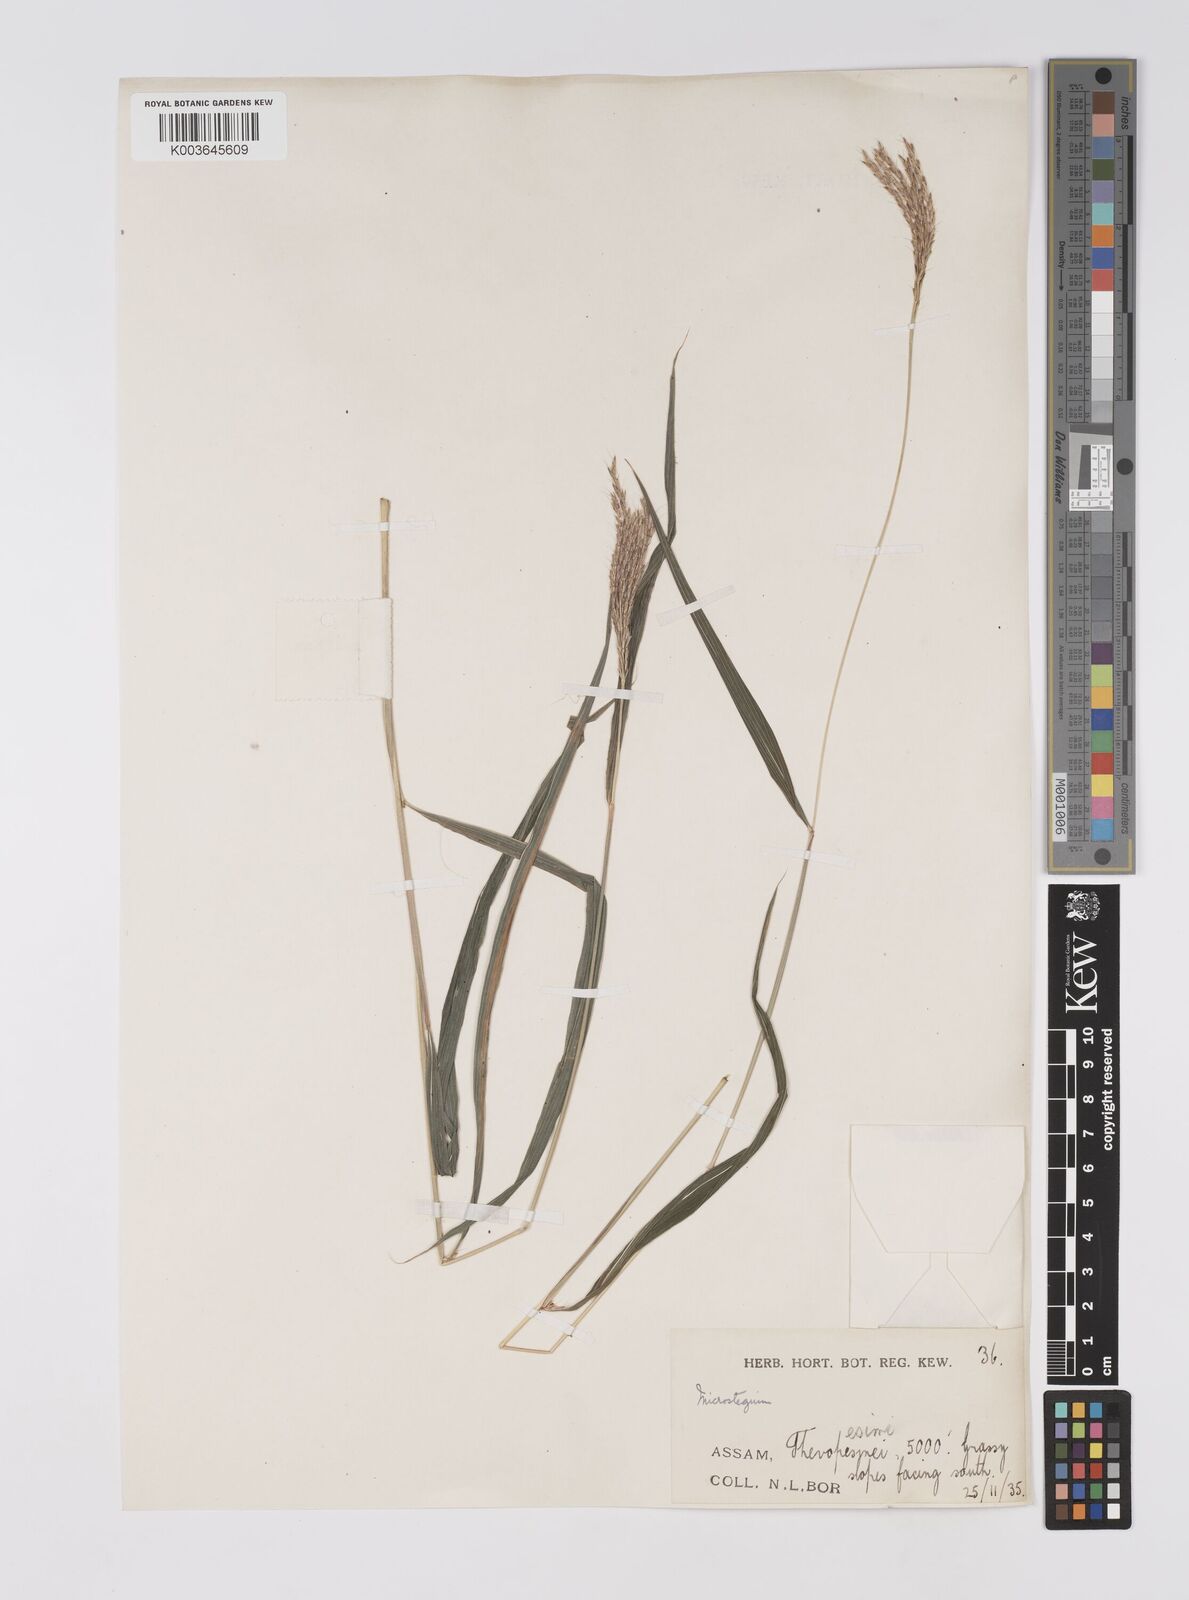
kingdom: Plantae
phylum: Tracheophyta
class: Liliopsida
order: Poales
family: Poaceae
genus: Microstegium
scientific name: Microstegium fasciculatum
